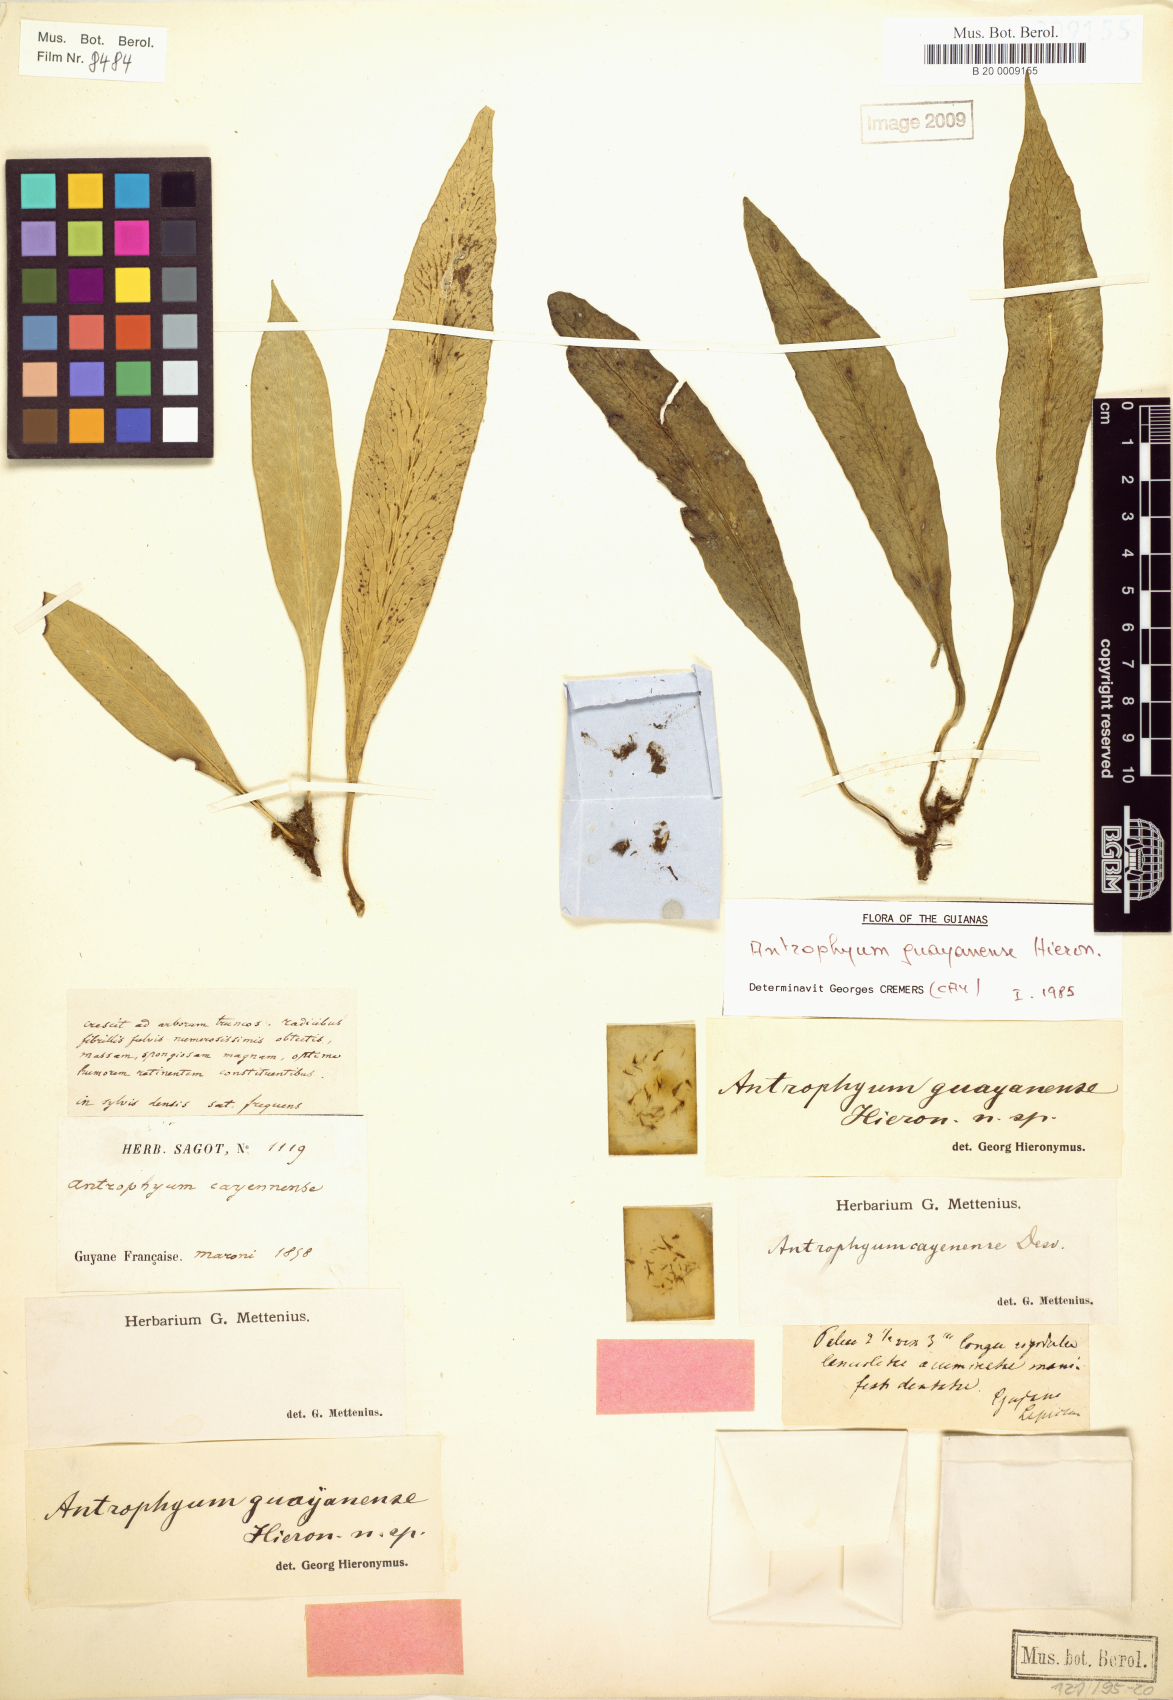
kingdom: Plantae
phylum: Tracheophyta
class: Polypodiopsida
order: Polypodiales
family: Pteridaceae
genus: Polytaenium
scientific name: Polytaenium guayanense
